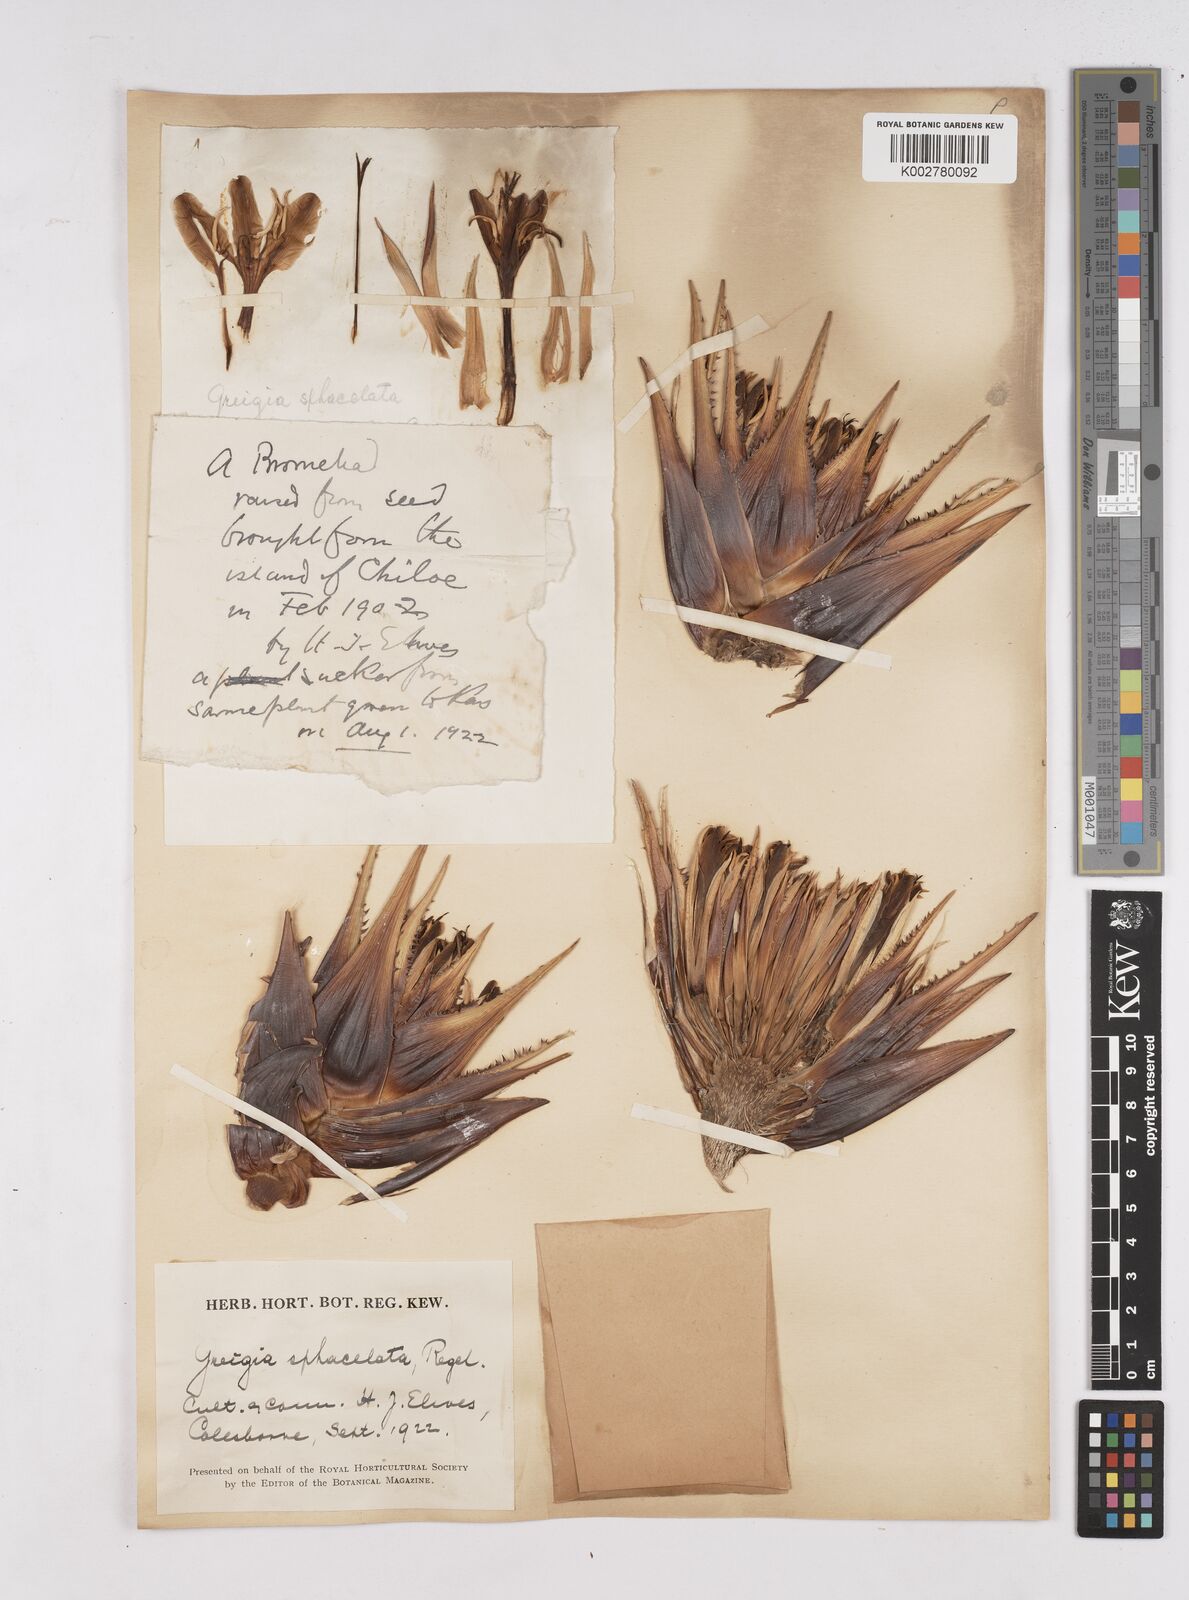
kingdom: Plantae
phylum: Tracheophyta
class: Liliopsida
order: Poales
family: Bromeliaceae
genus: Greigia
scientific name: Greigia sphacelata
